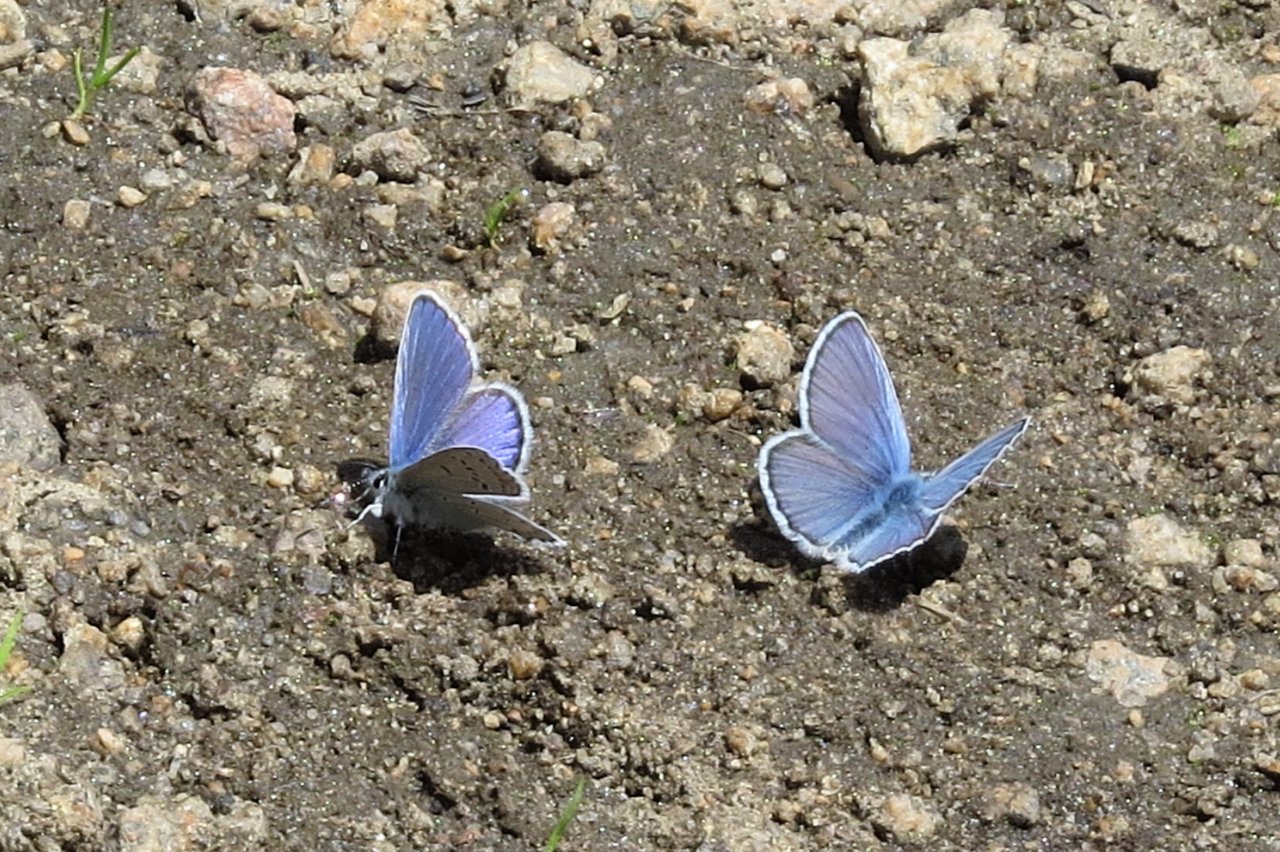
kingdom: Animalia
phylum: Arthropoda
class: Insecta
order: Lepidoptera
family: Lycaenidae
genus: Lycaeides
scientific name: Lycaeides melissa
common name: Melissa Blue
